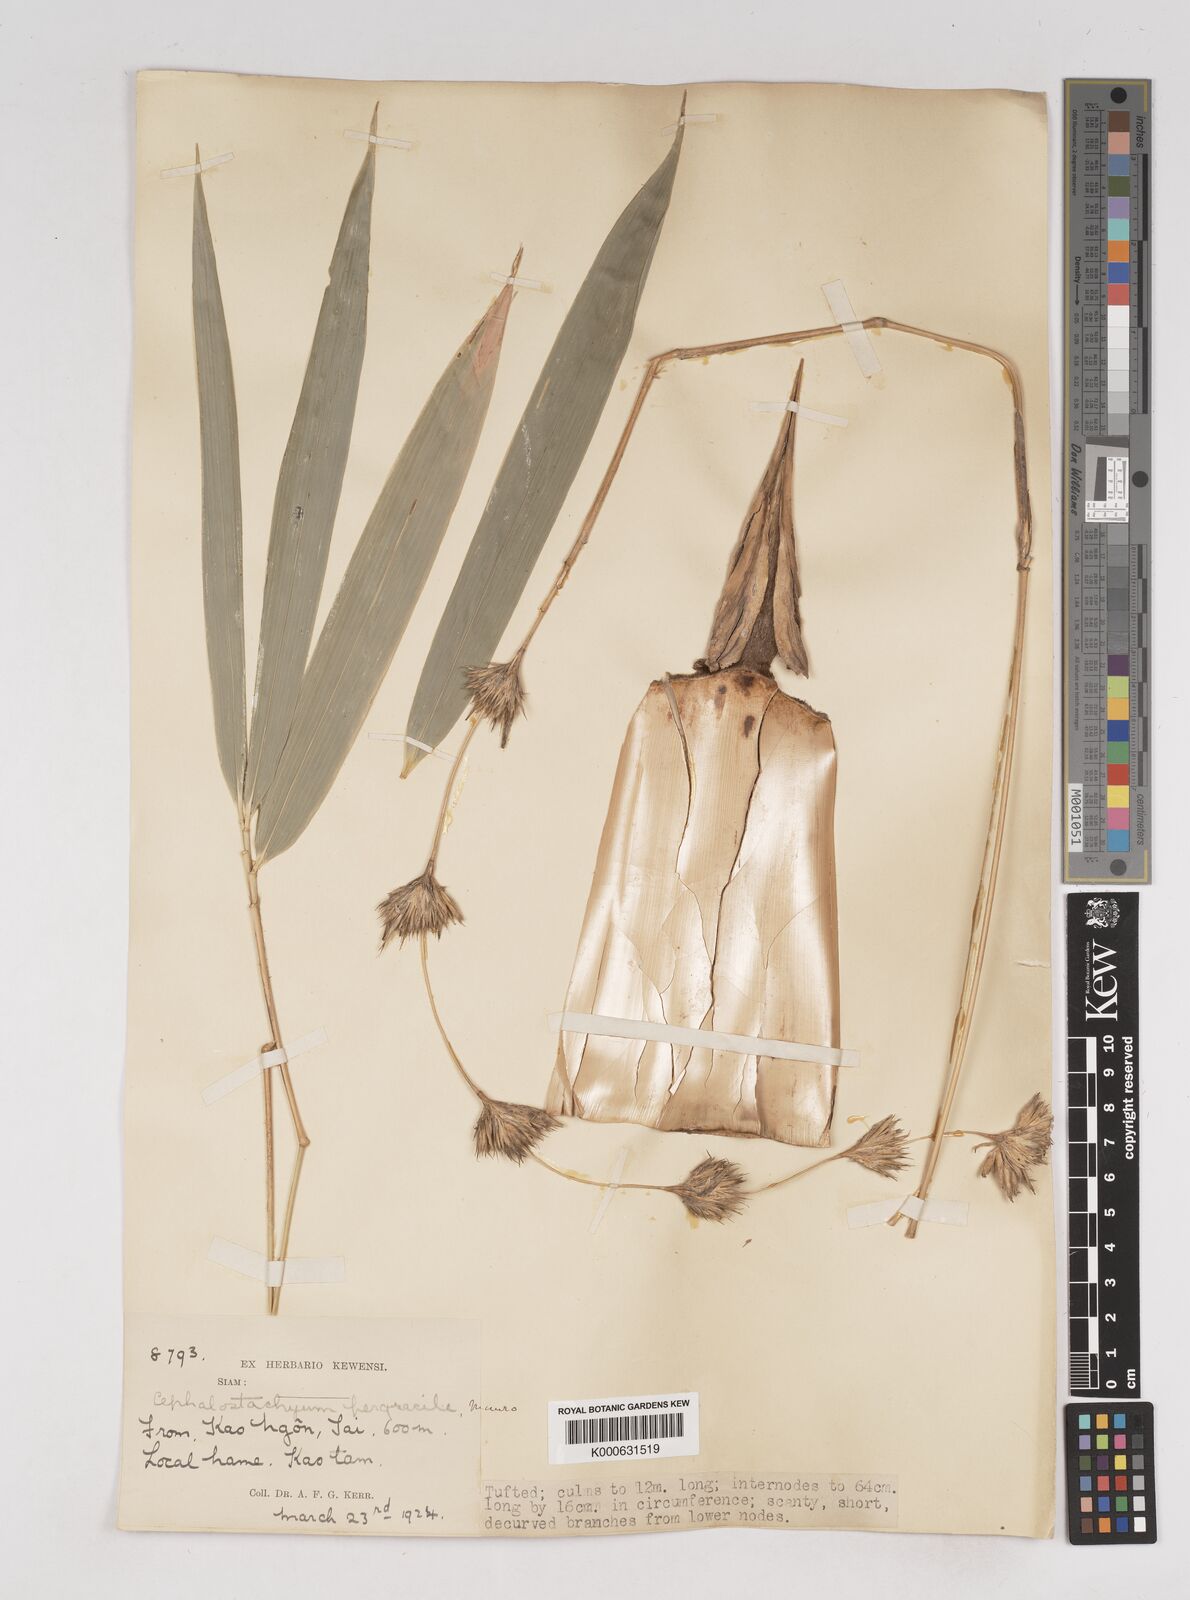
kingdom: Plantae
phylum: Tracheophyta
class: Liliopsida
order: Poales
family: Poaceae
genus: Schizostachyum
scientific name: Schizostachyum pergracile
